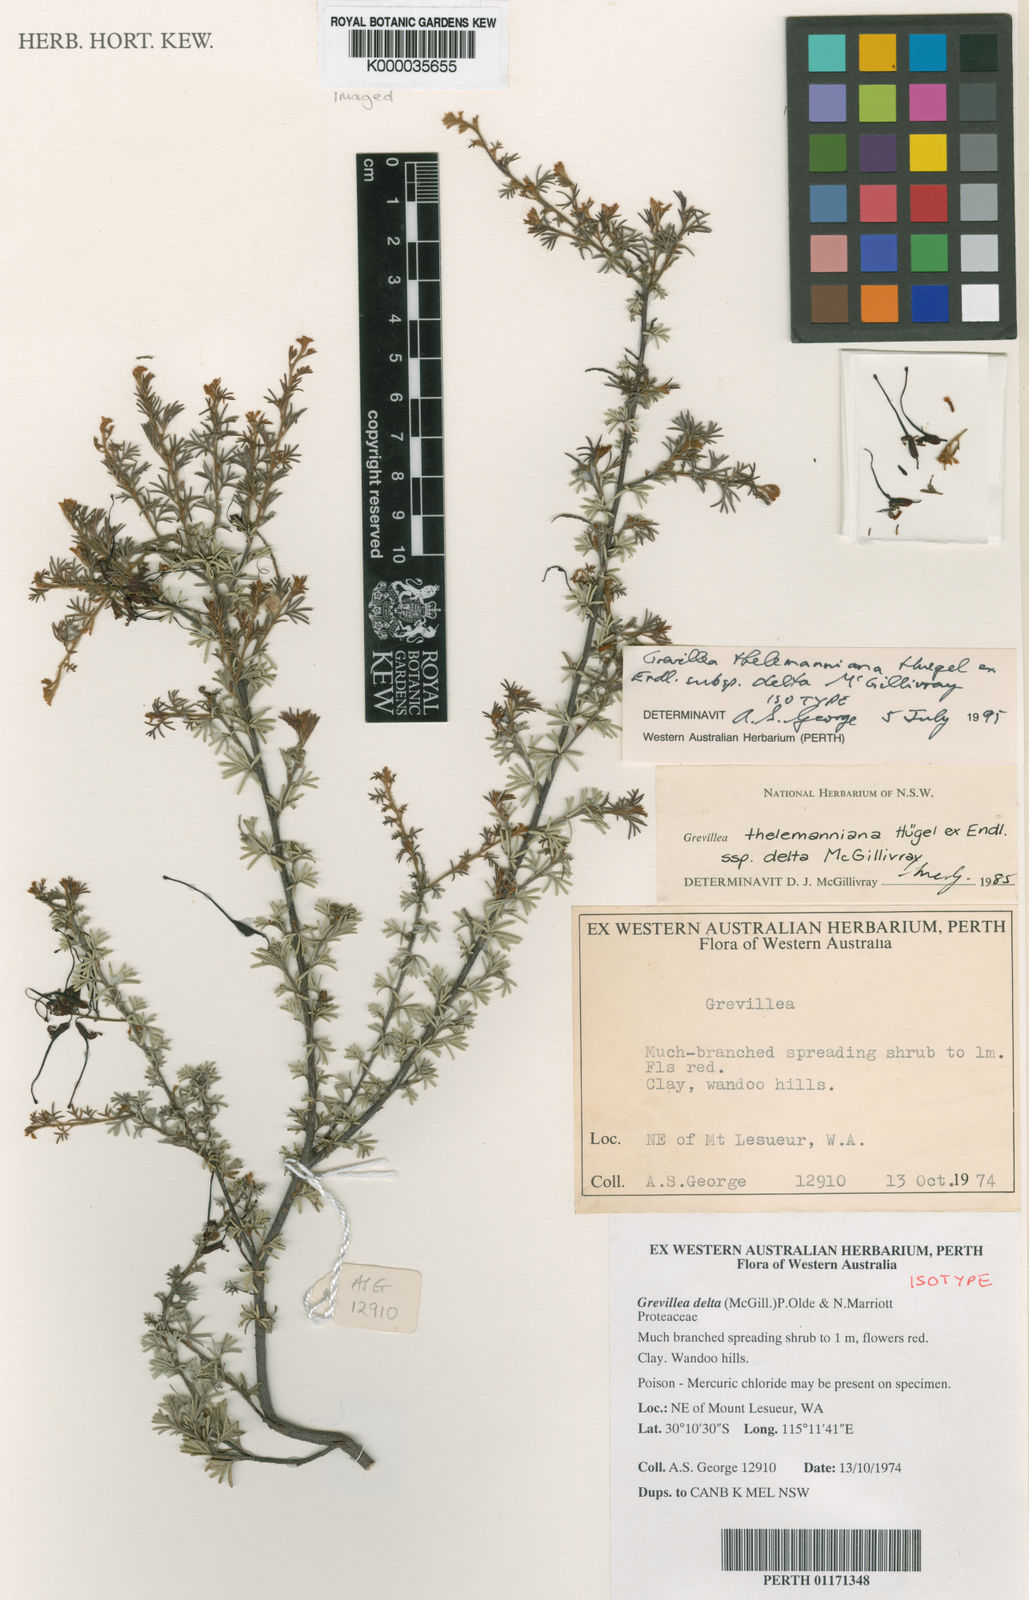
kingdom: Plantae
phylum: Tracheophyta
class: Magnoliopsida
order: Proteales
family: Proteaceae
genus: Grevillea
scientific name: Grevillea delta
